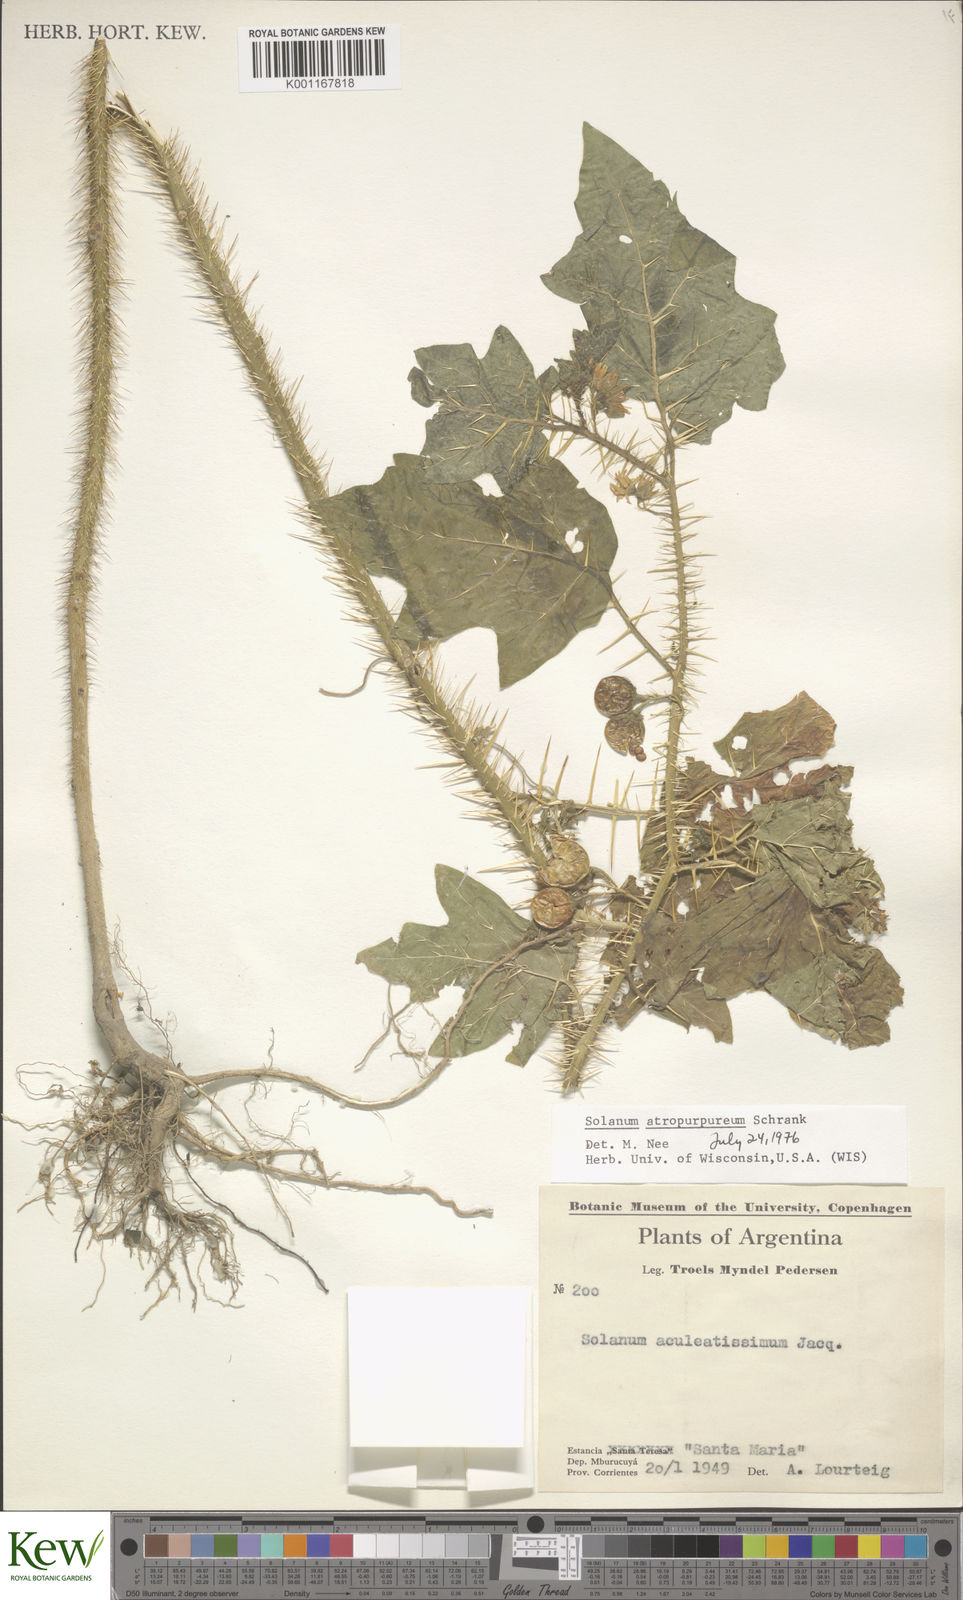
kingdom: Plantae
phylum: Tracheophyta
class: Magnoliopsida
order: Solanales
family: Solanaceae
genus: Solanum
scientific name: Solanum atropurpureum
